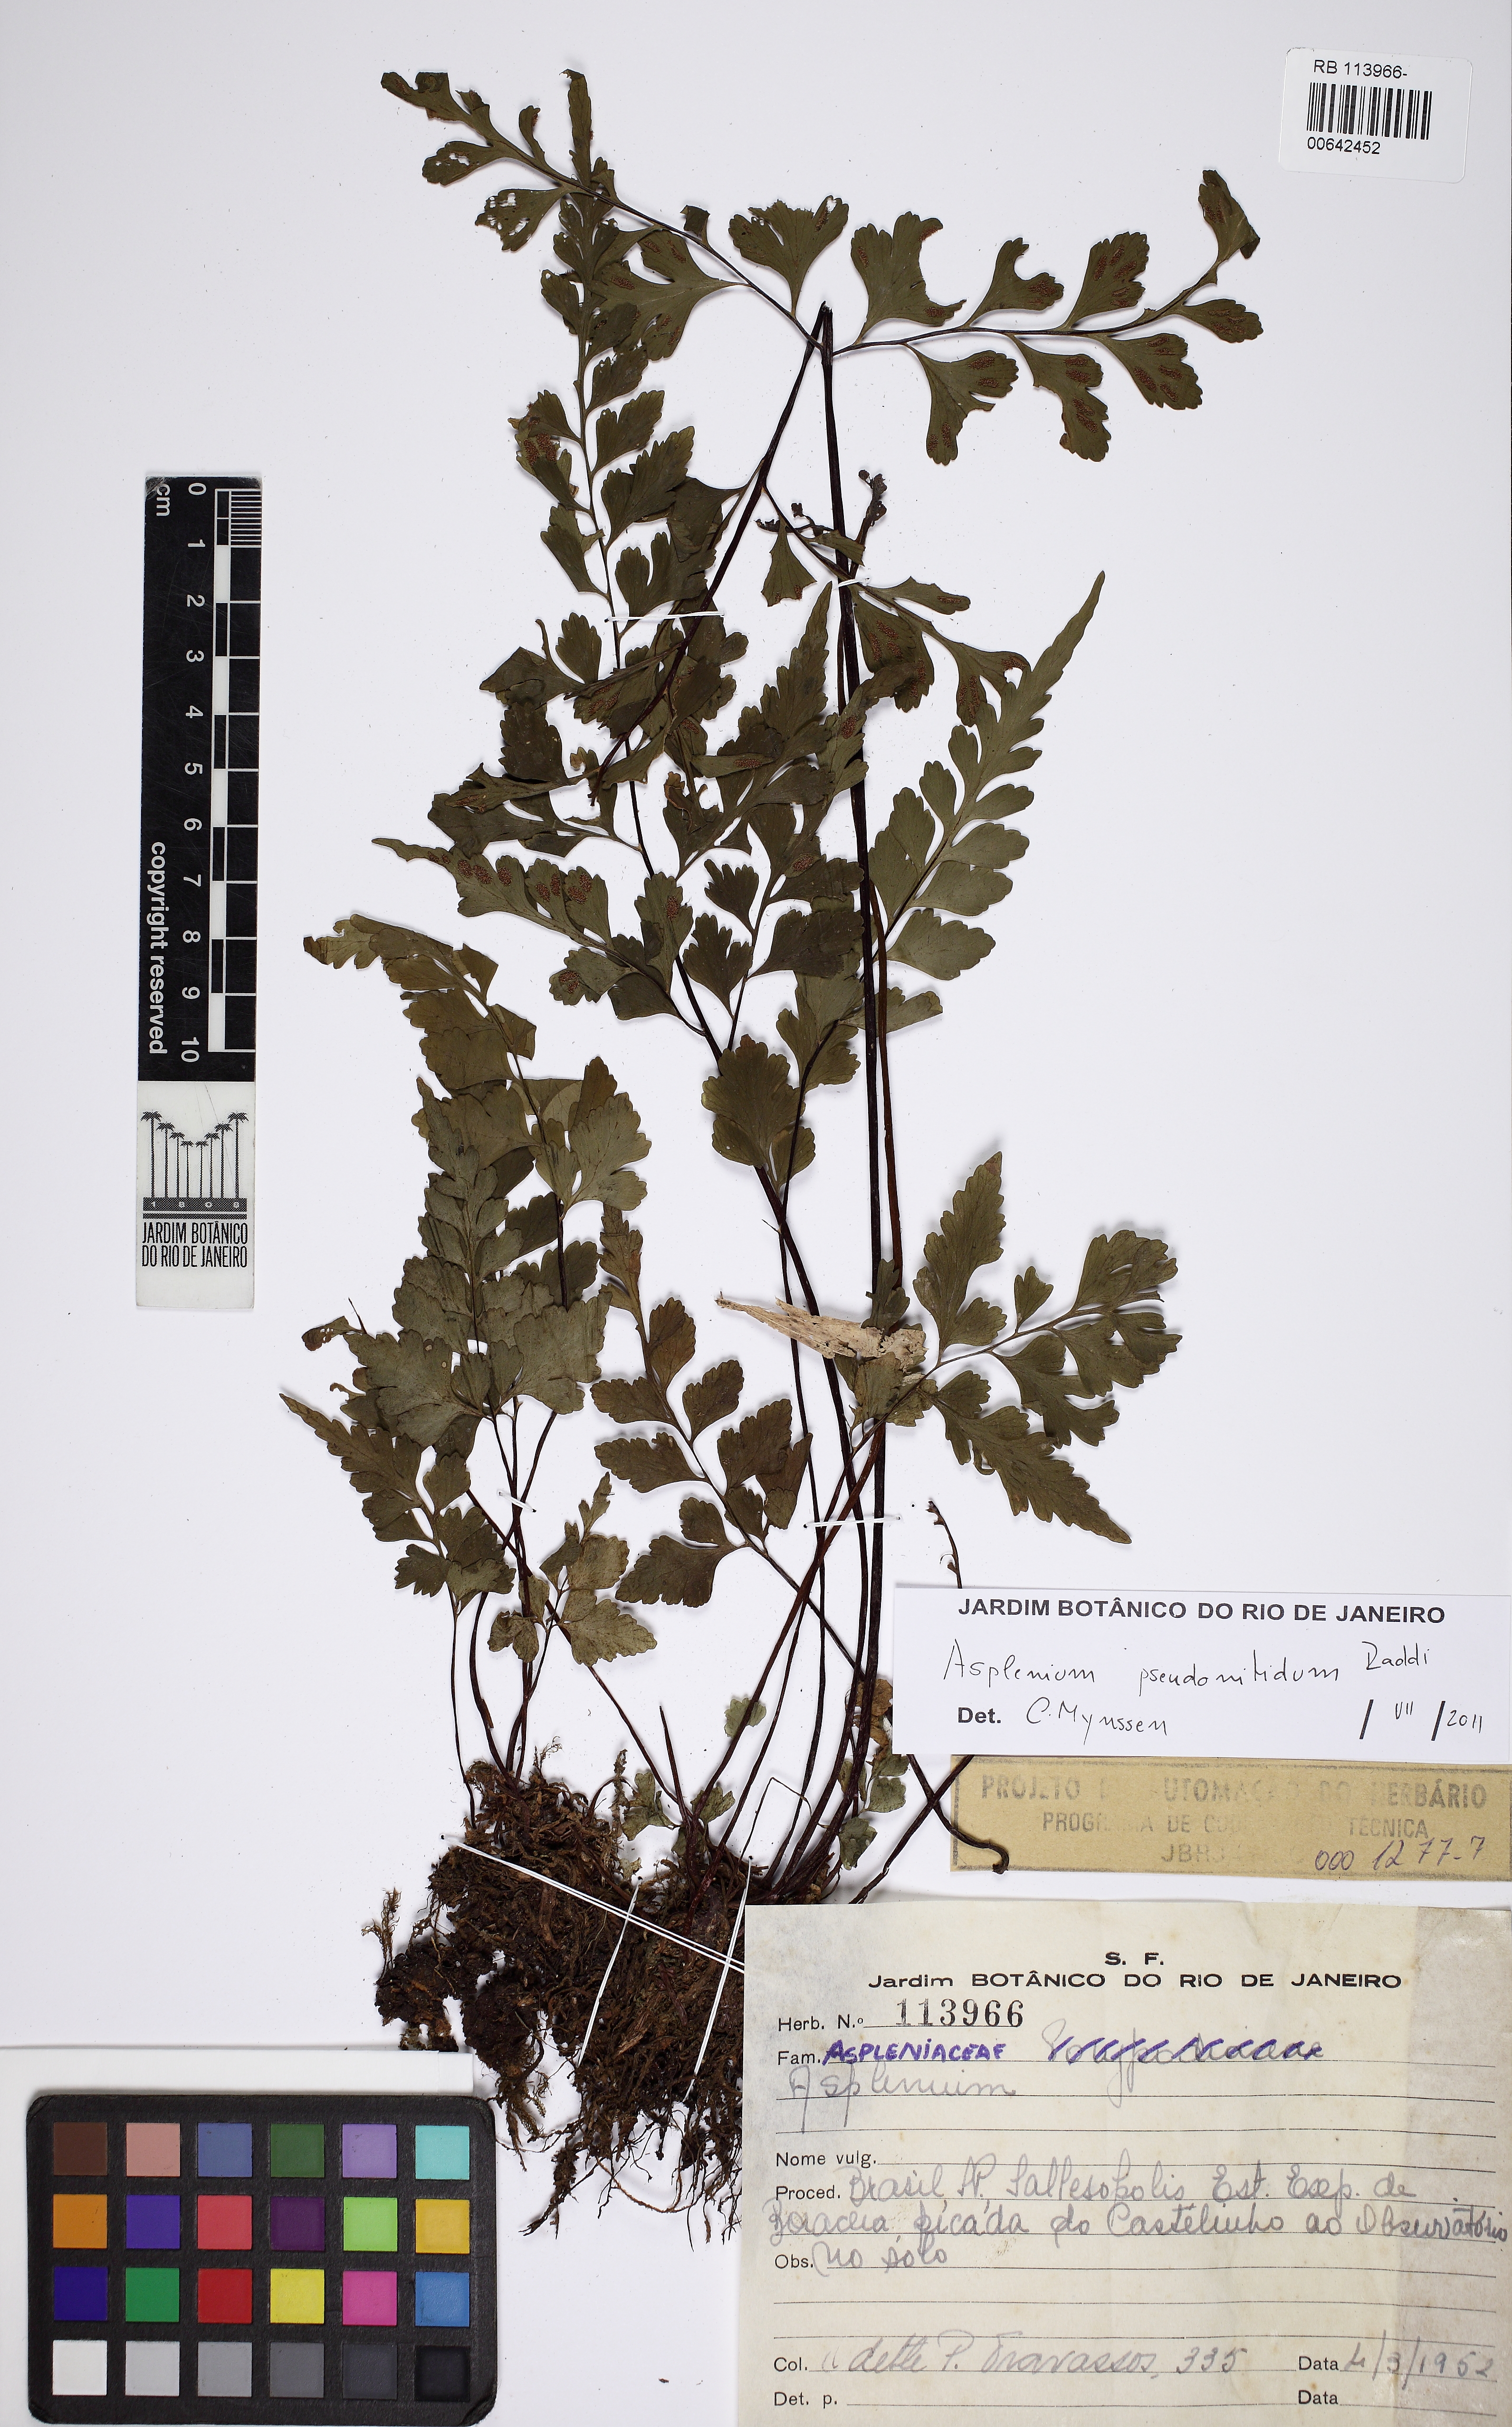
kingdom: Plantae
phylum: Tracheophyta
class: Polypodiopsida
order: Polypodiales
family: Aspleniaceae
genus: Asplenium
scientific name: Asplenium pseudonitidum
